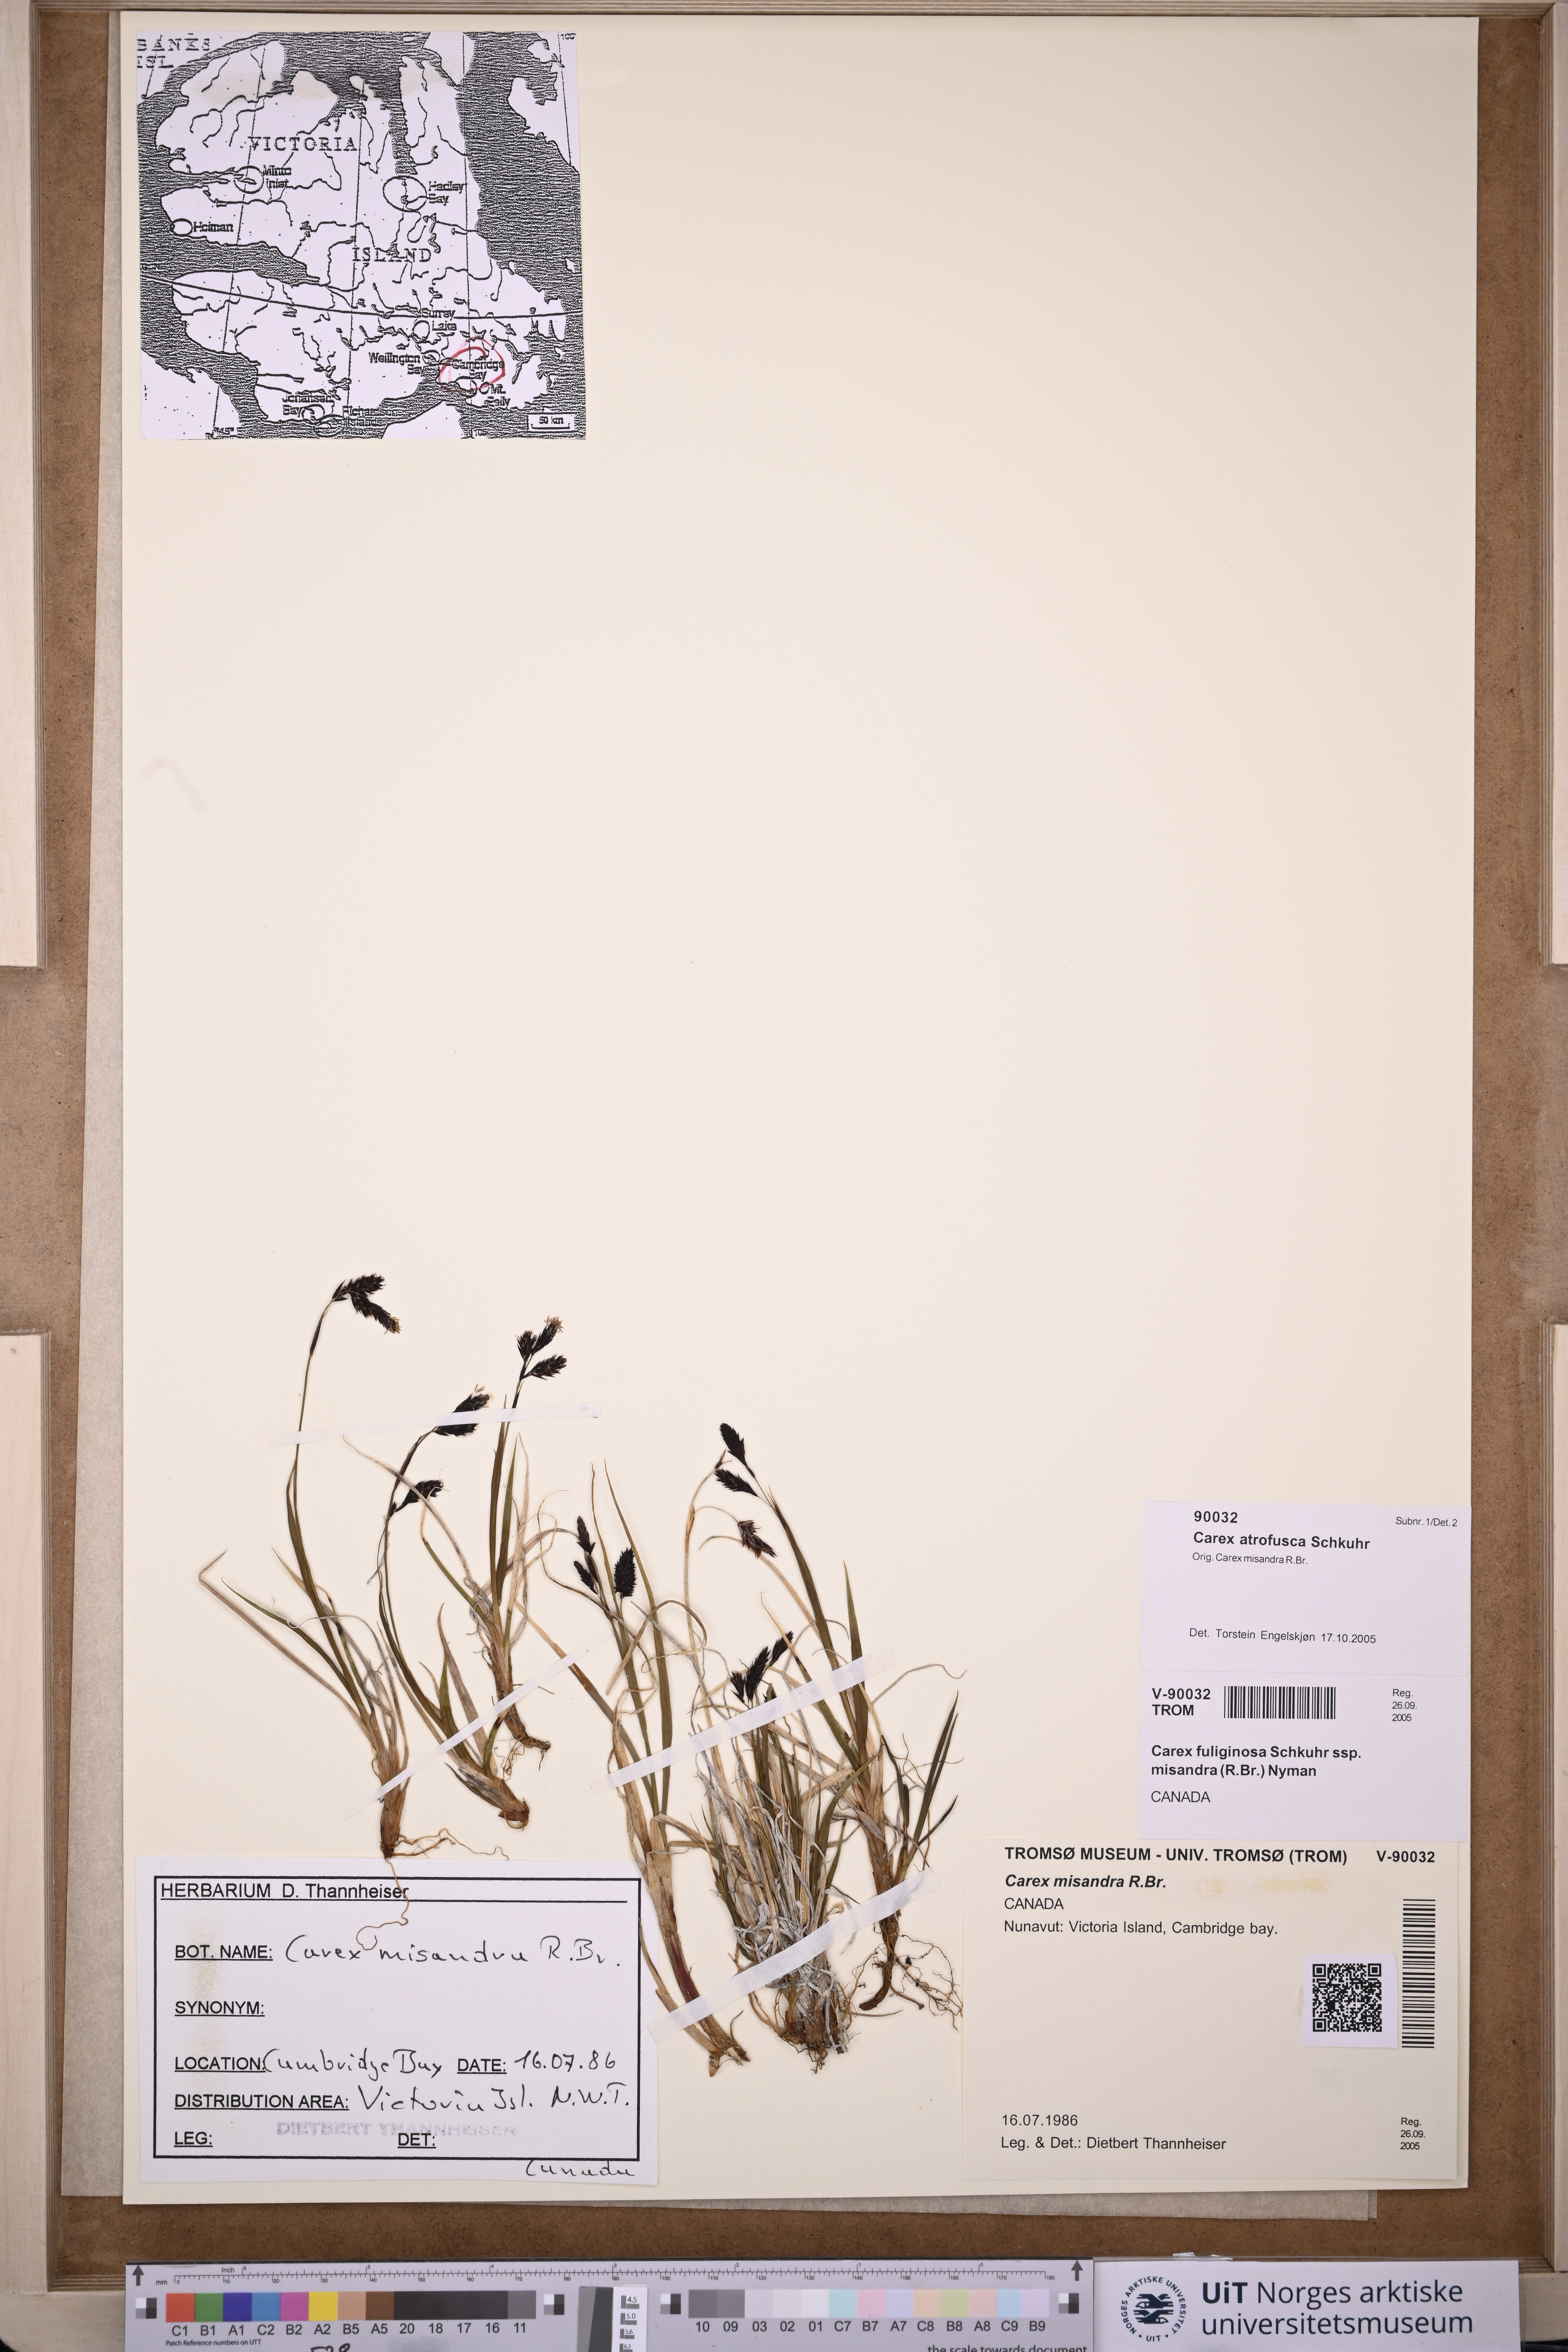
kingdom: Plantae
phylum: Tracheophyta
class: Liliopsida
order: Poales
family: Cyperaceae
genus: Carex
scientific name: Carex atrofusca
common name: Scorched alpine-sedge
